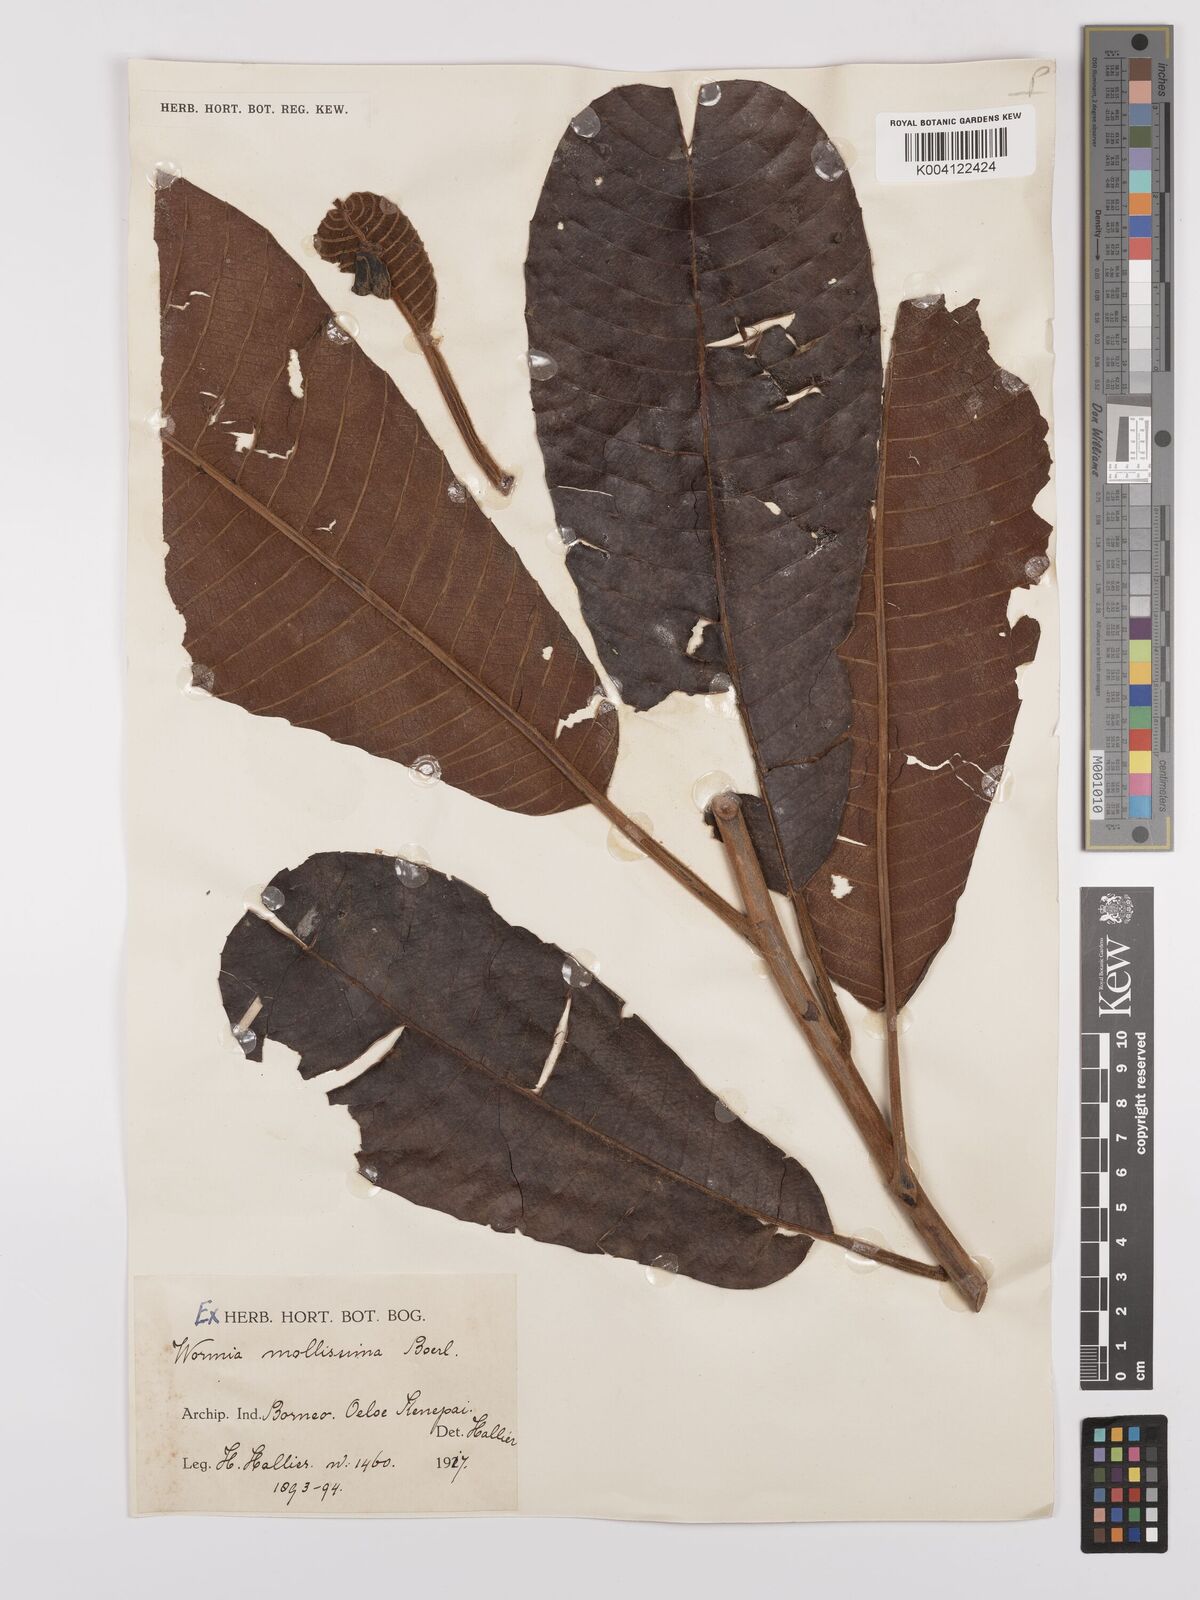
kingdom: Plantae
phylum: Tracheophyta
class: Magnoliopsida
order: Dilleniales
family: Dilleniaceae
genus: Dillenia
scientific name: Dillenia grandifolia
